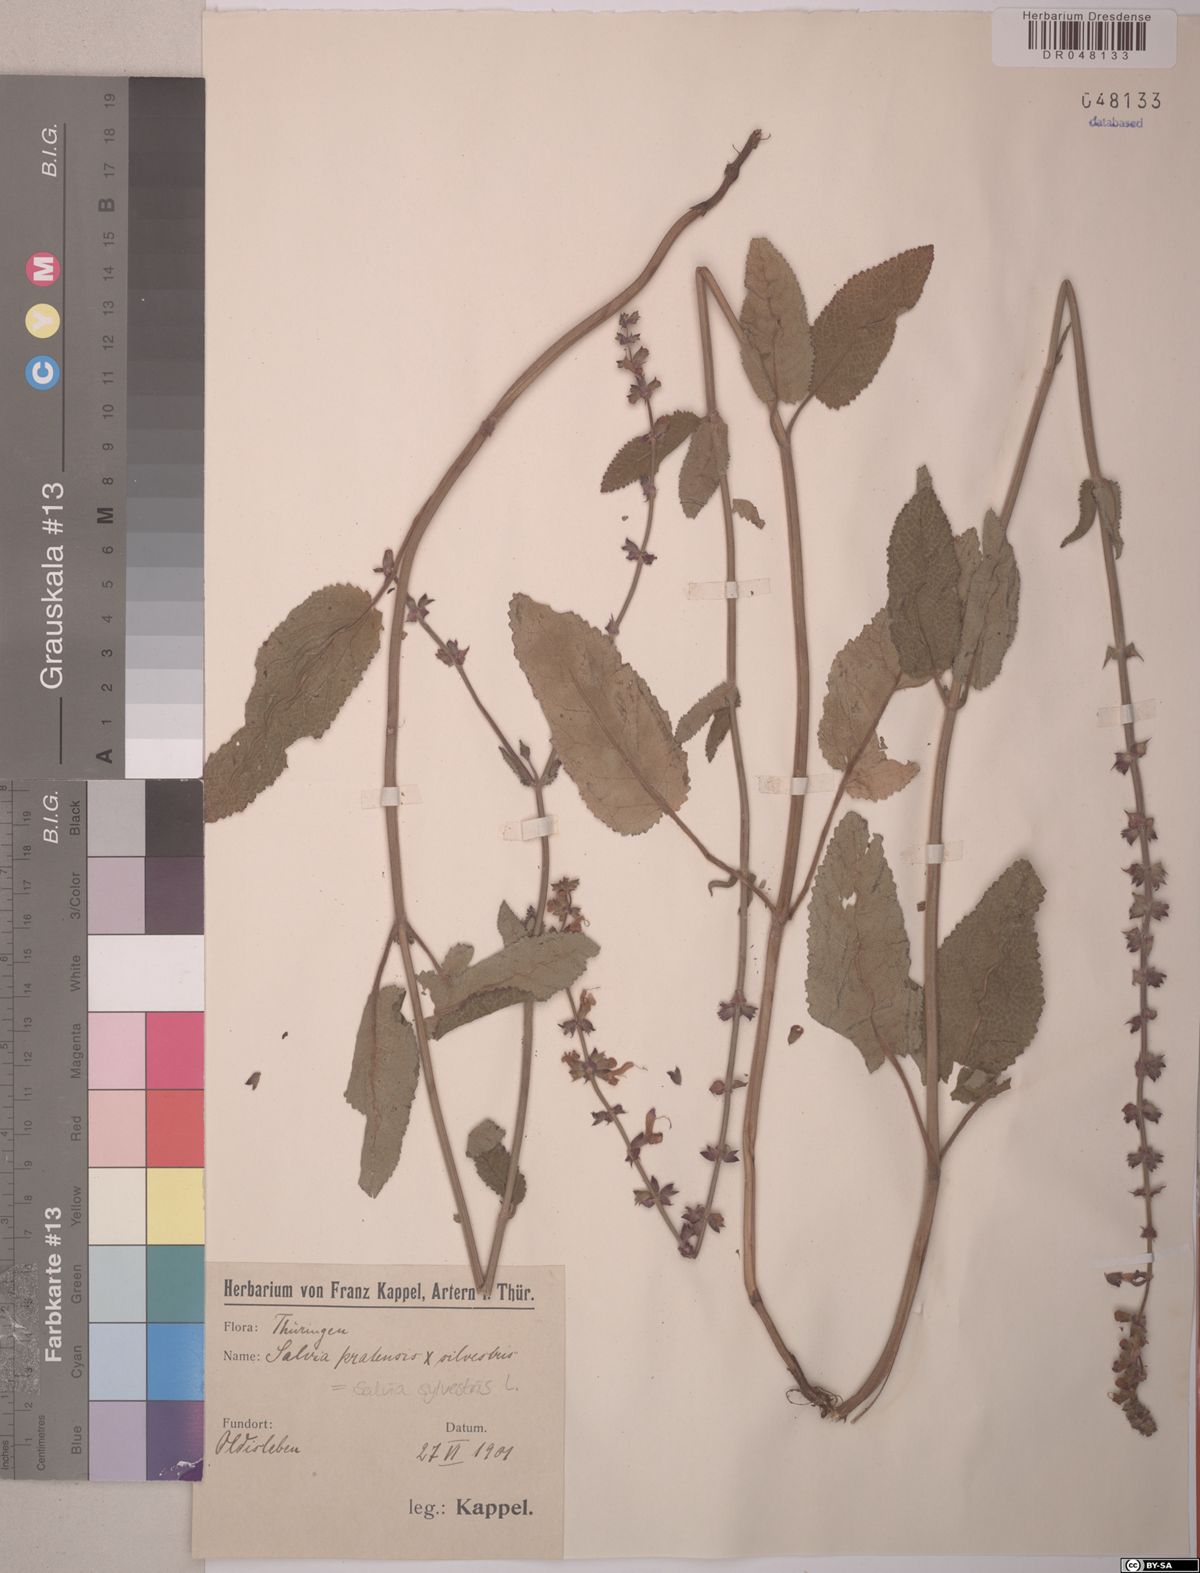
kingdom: Plantae
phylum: Tracheophyta
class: Magnoliopsida
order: Lamiales
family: Lamiaceae
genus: Salvia
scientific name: Salvia sylvestris
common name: Woodland sage
